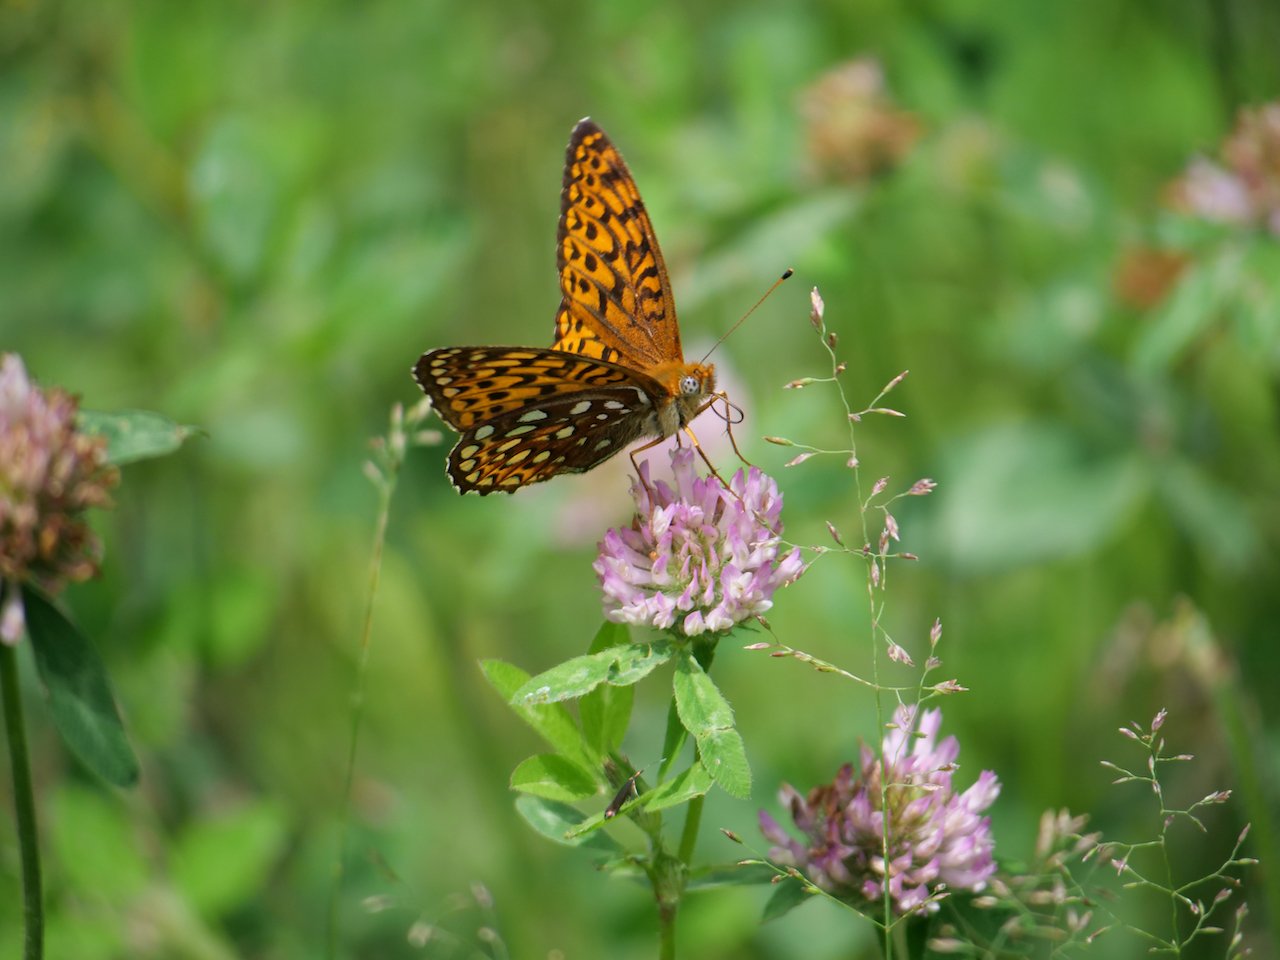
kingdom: Animalia
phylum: Arthropoda
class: Insecta
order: Lepidoptera
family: Nymphalidae
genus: Speyeria
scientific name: Speyeria atlantis
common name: Atlantis Fritillary
